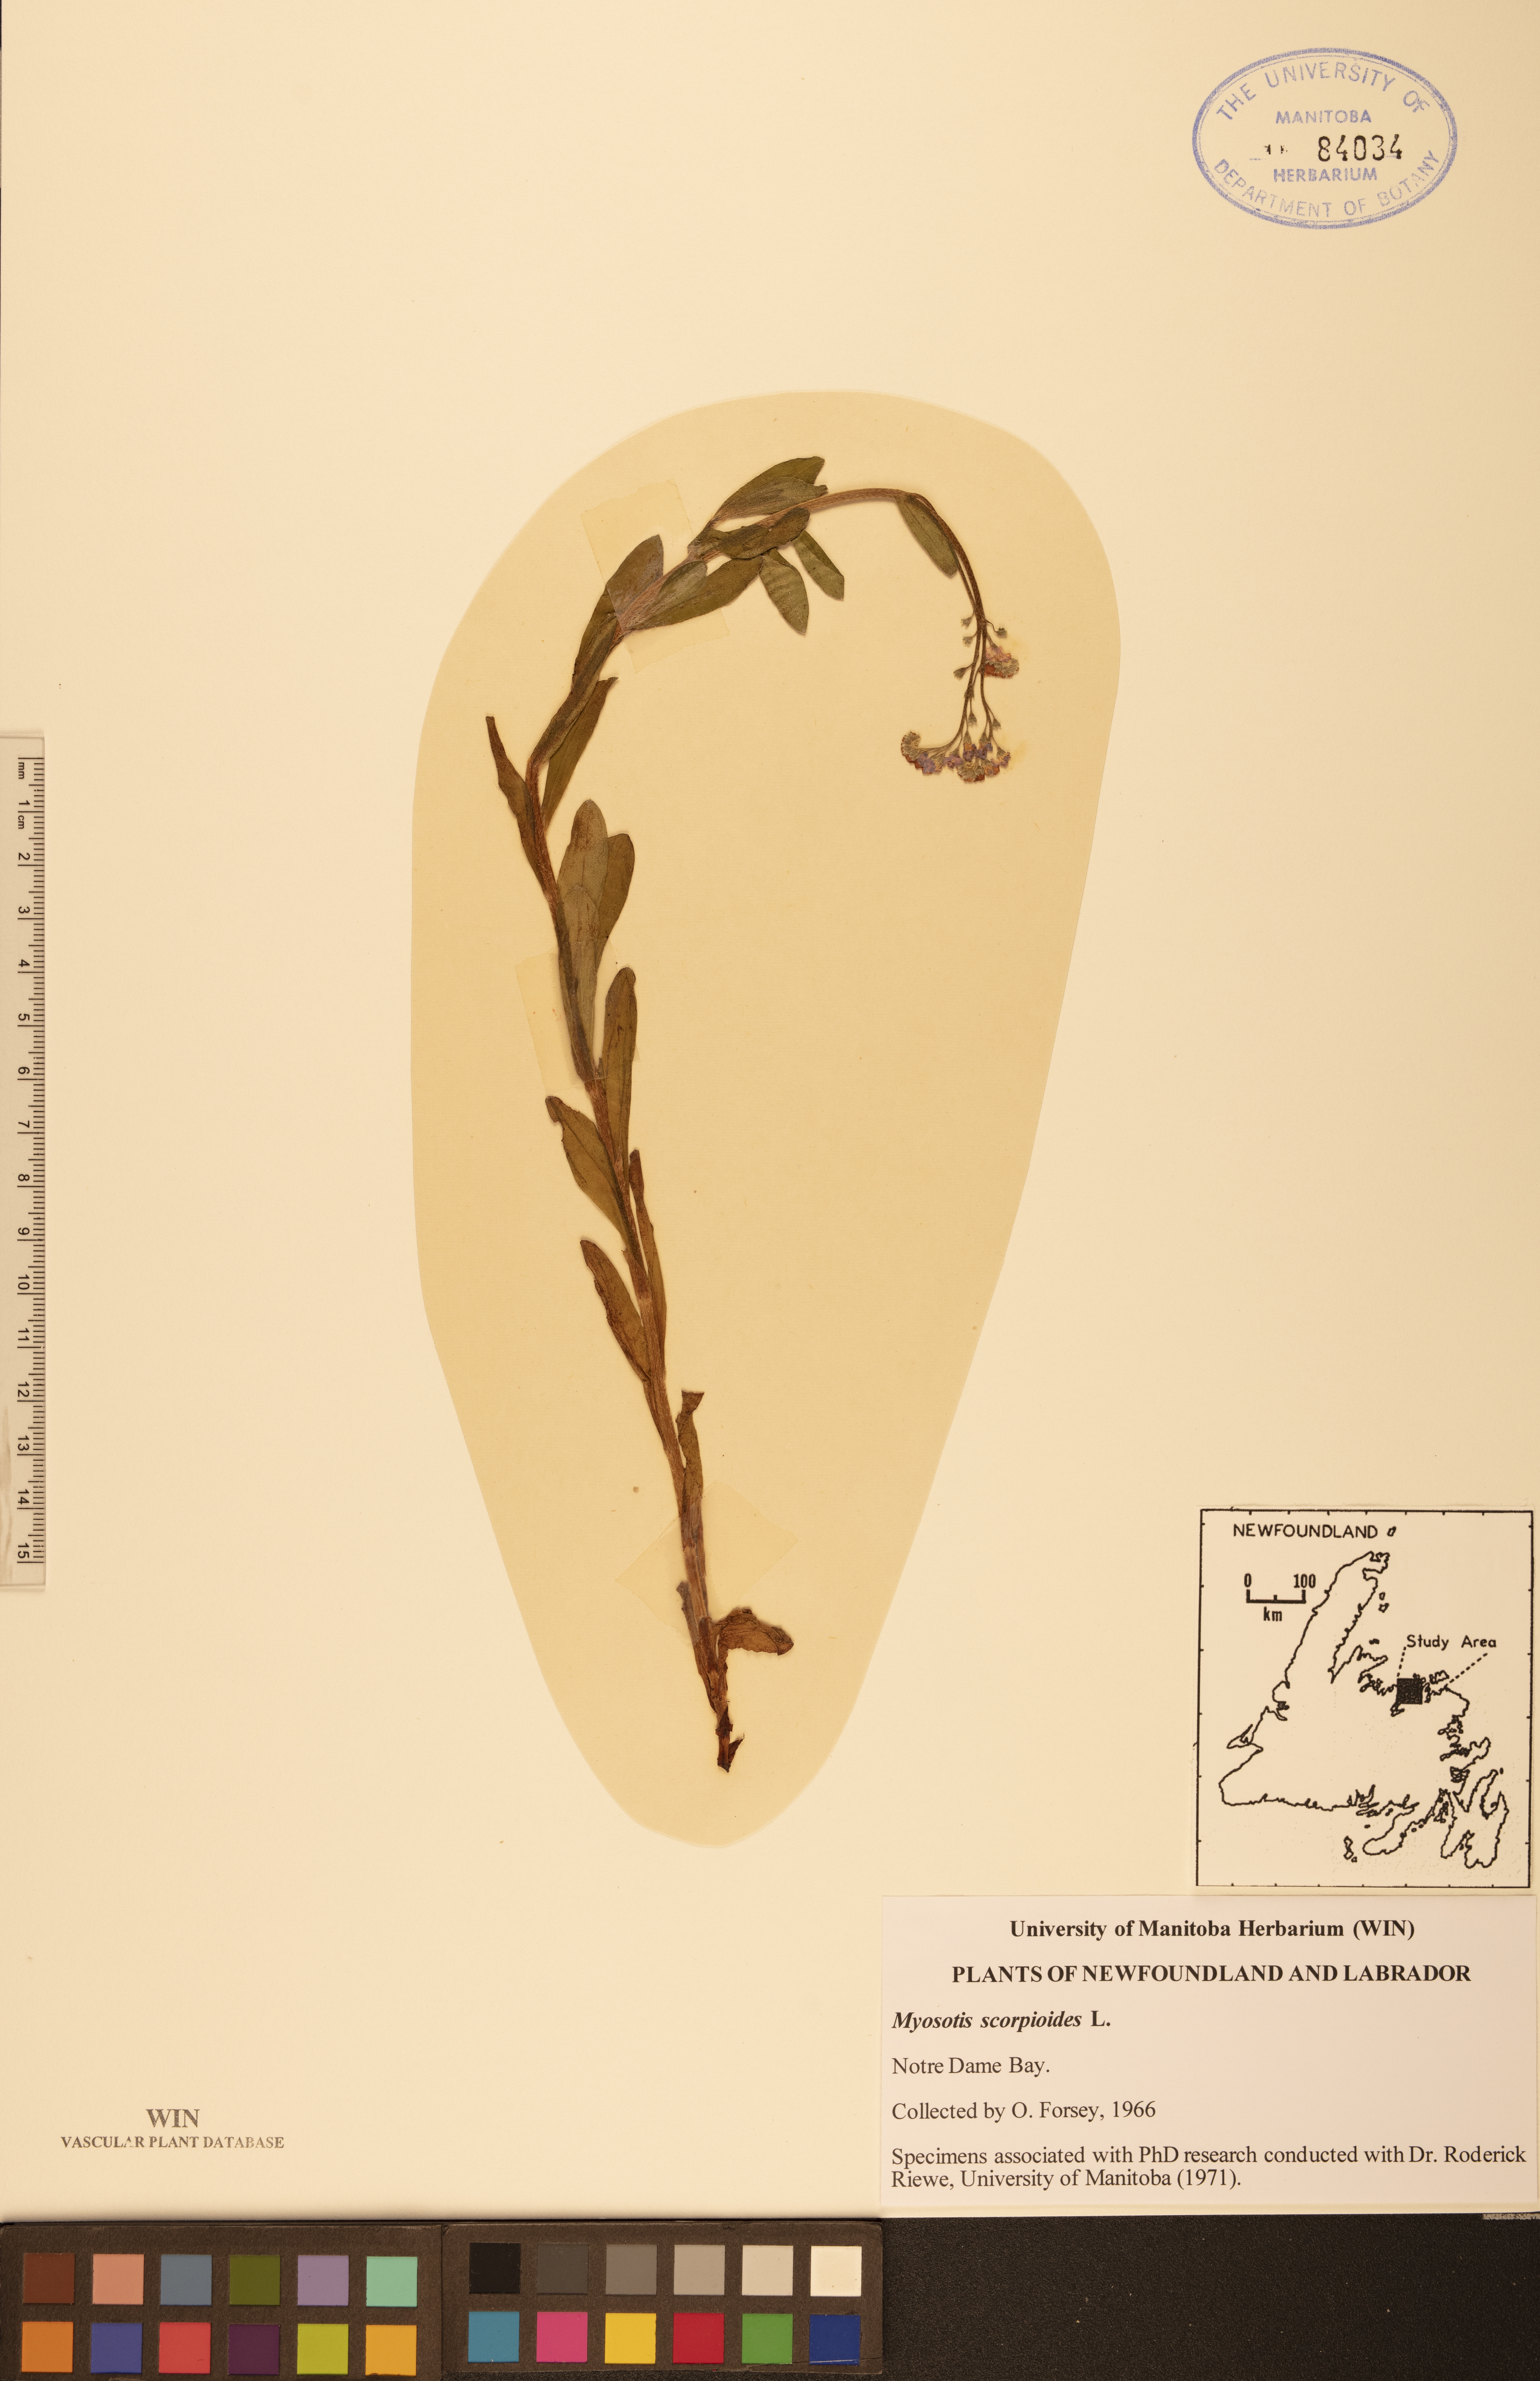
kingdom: Plantae
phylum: Tracheophyta
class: Magnoliopsida
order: Boraginales
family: Boraginaceae
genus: Myosotis
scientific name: Myosotis scorpioides
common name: Water forget-me-not
